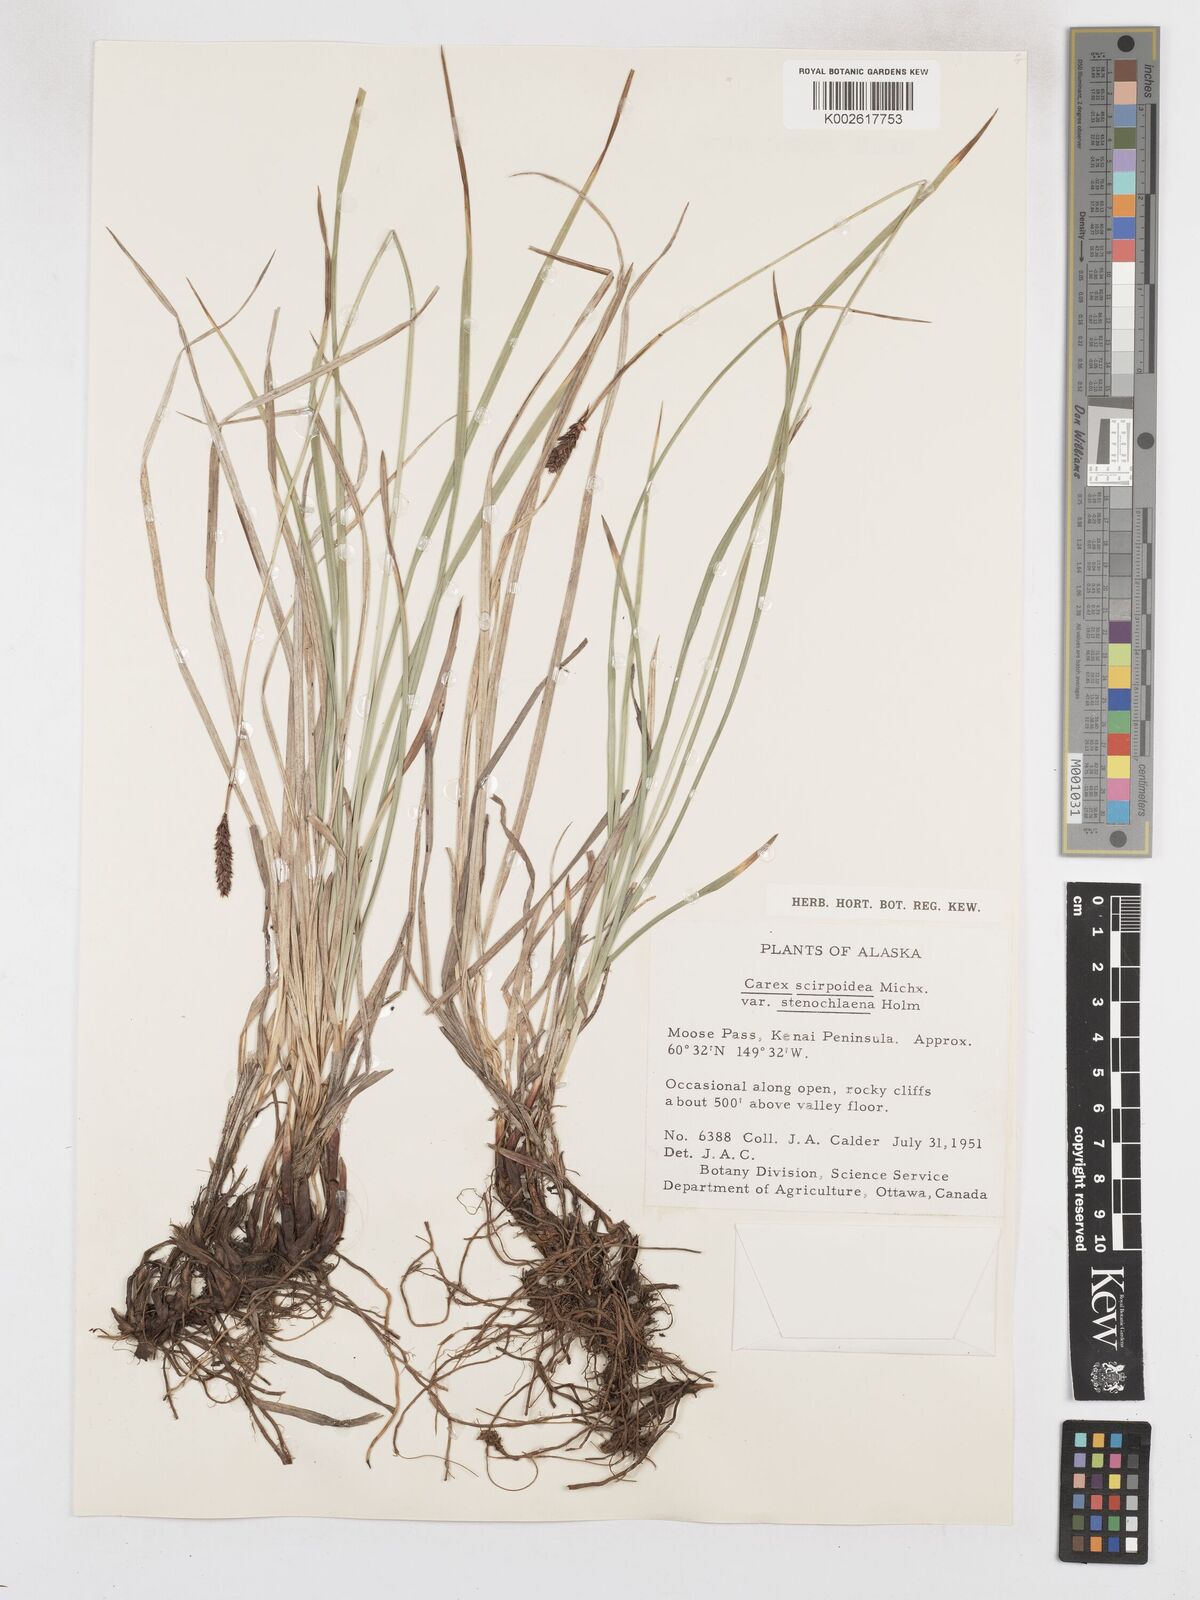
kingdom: Plantae
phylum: Tracheophyta
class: Liliopsida
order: Poales
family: Cyperaceae
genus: Carex
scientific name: Carex scirpoidea
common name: Canada single-spike sedge
